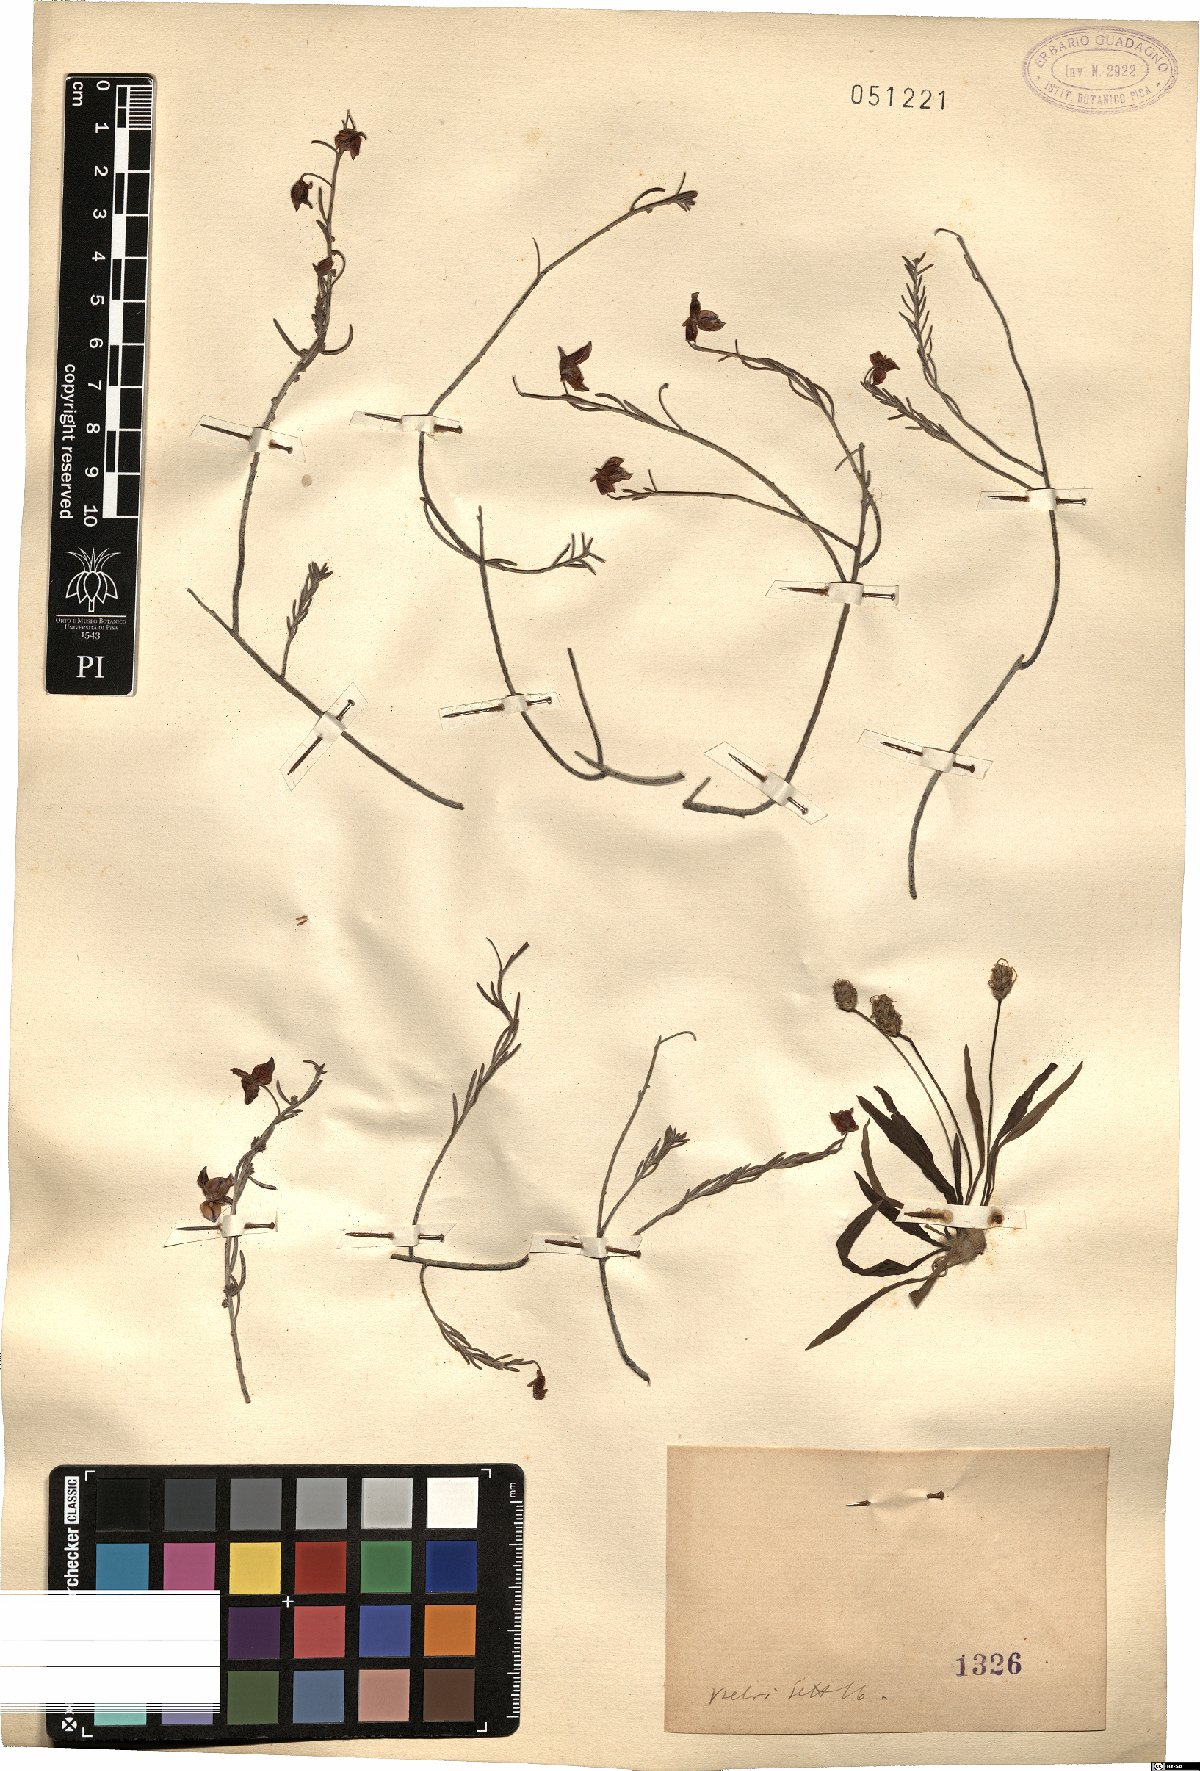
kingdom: Plantae
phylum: Tracheophyta
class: Magnoliopsida
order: Malvales
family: Cistaceae
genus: Helianthemum
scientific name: Helianthemum
